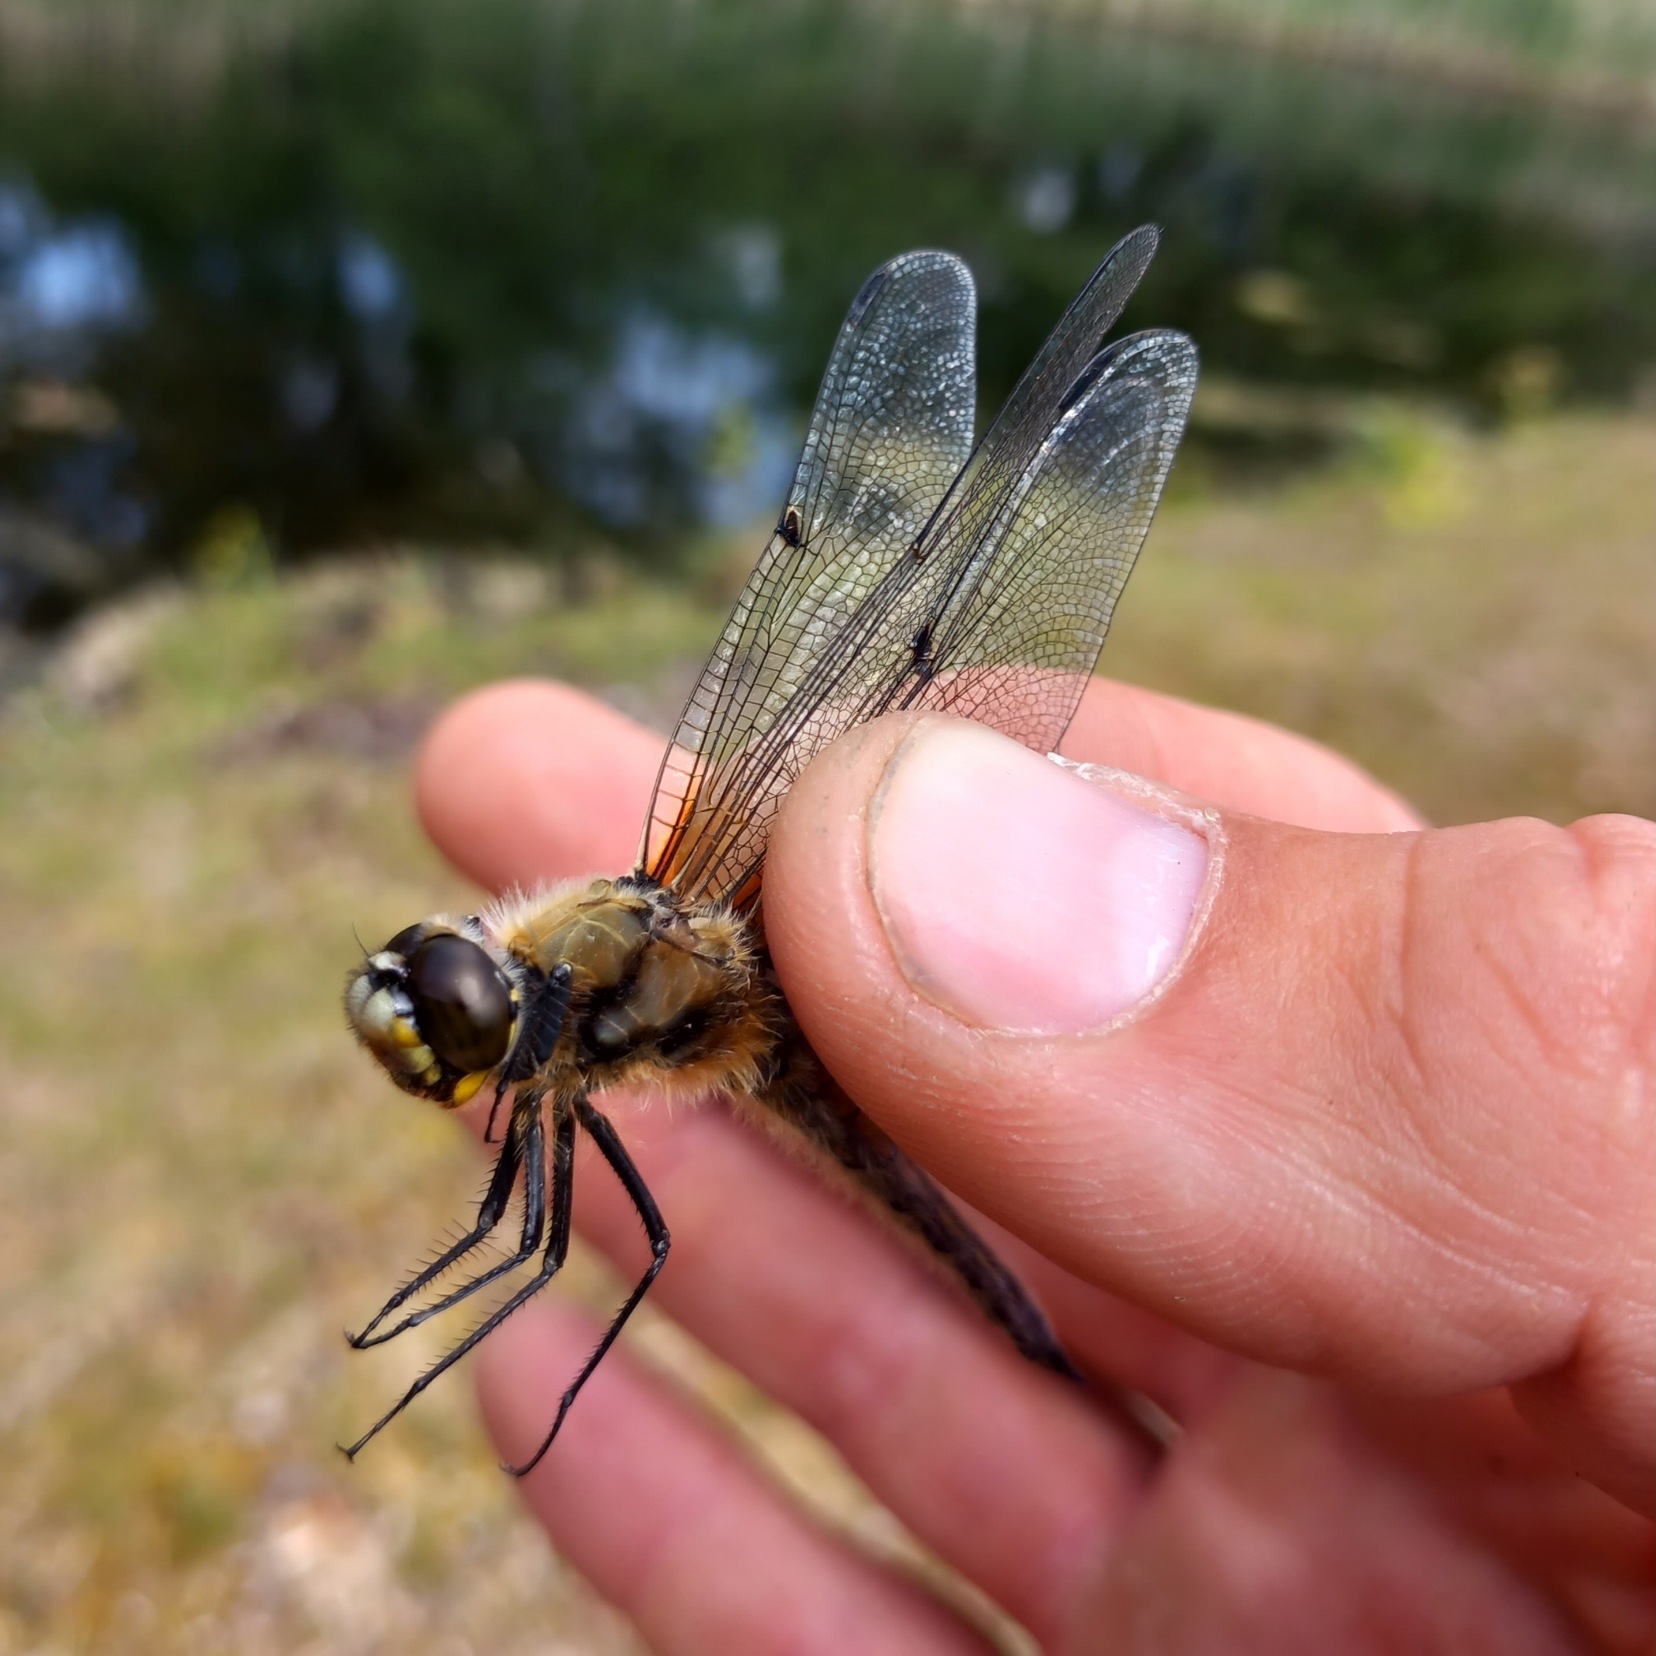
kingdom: Animalia
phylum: Arthropoda
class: Insecta
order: Odonata
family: Libellulidae
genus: Libellula
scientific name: Libellula quadrimaculata
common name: Fireplettet libel
